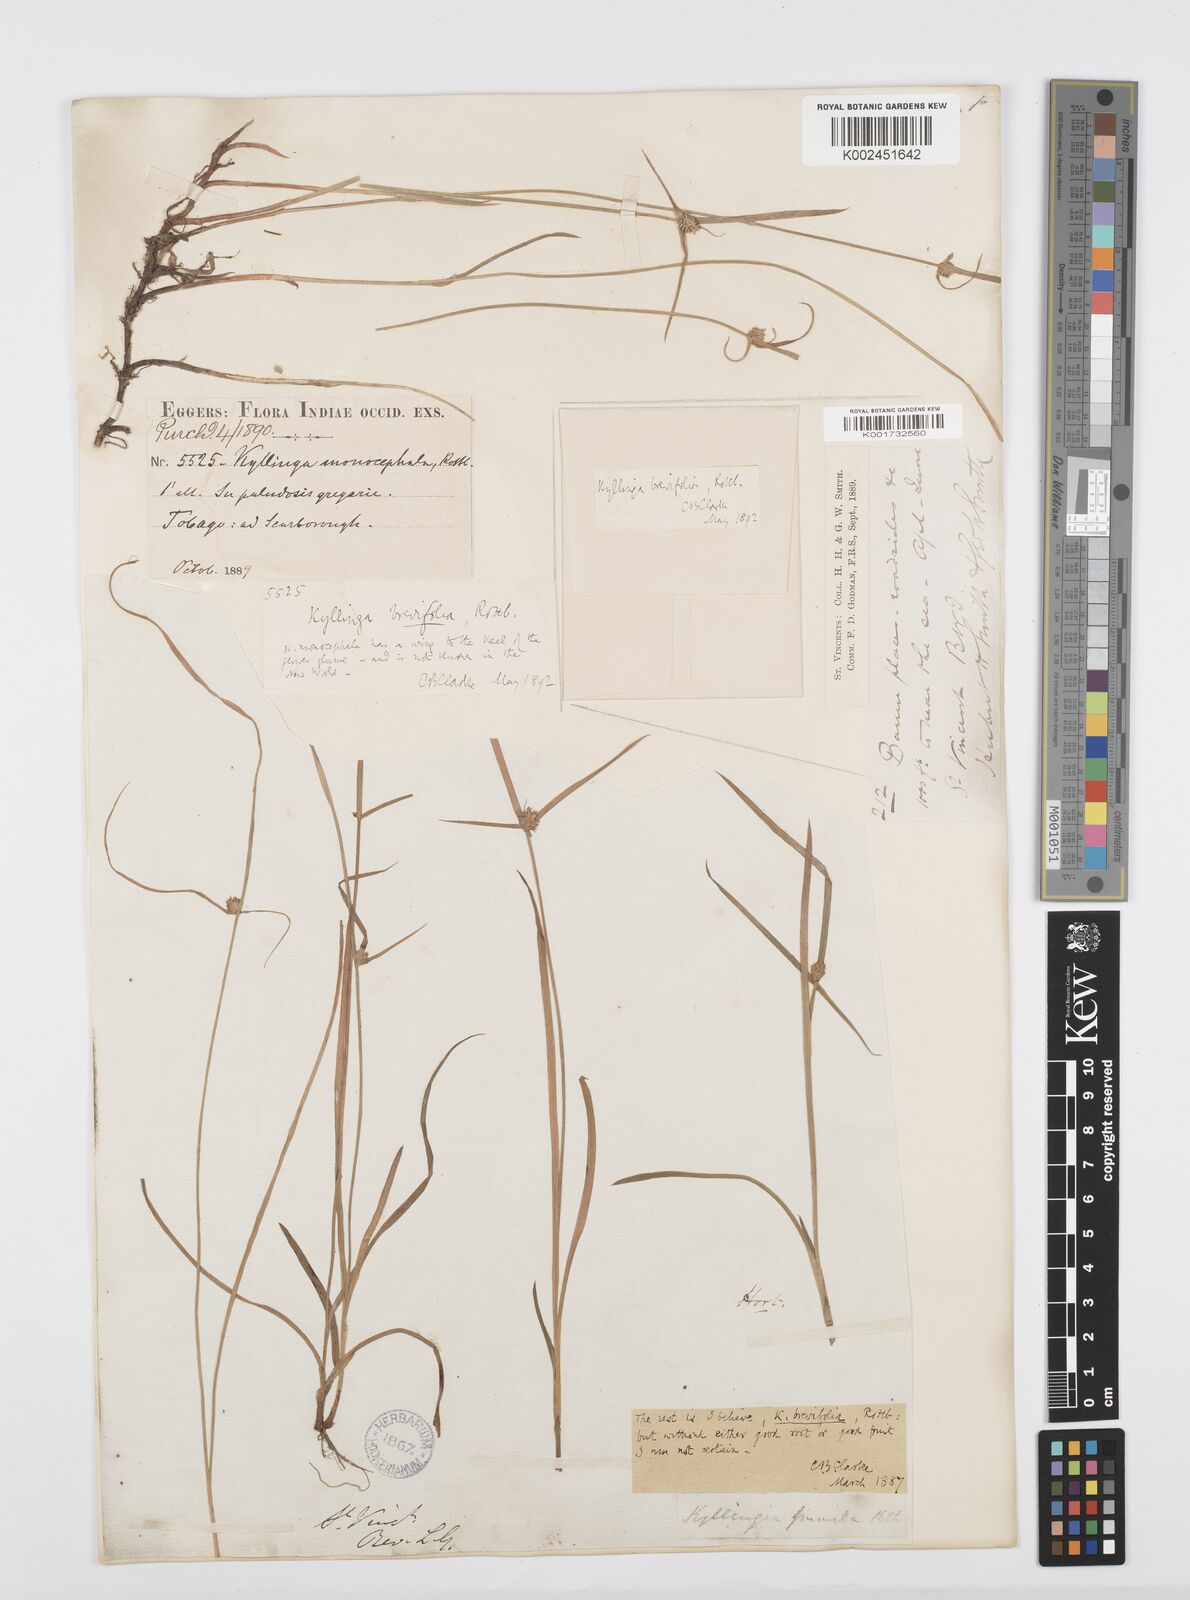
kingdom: Plantae
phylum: Tracheophyta
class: Liliopsida
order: Poales
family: Cyperaceae
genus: Cyperus
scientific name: Cyperus brevifolius
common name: Globe kyllinga
